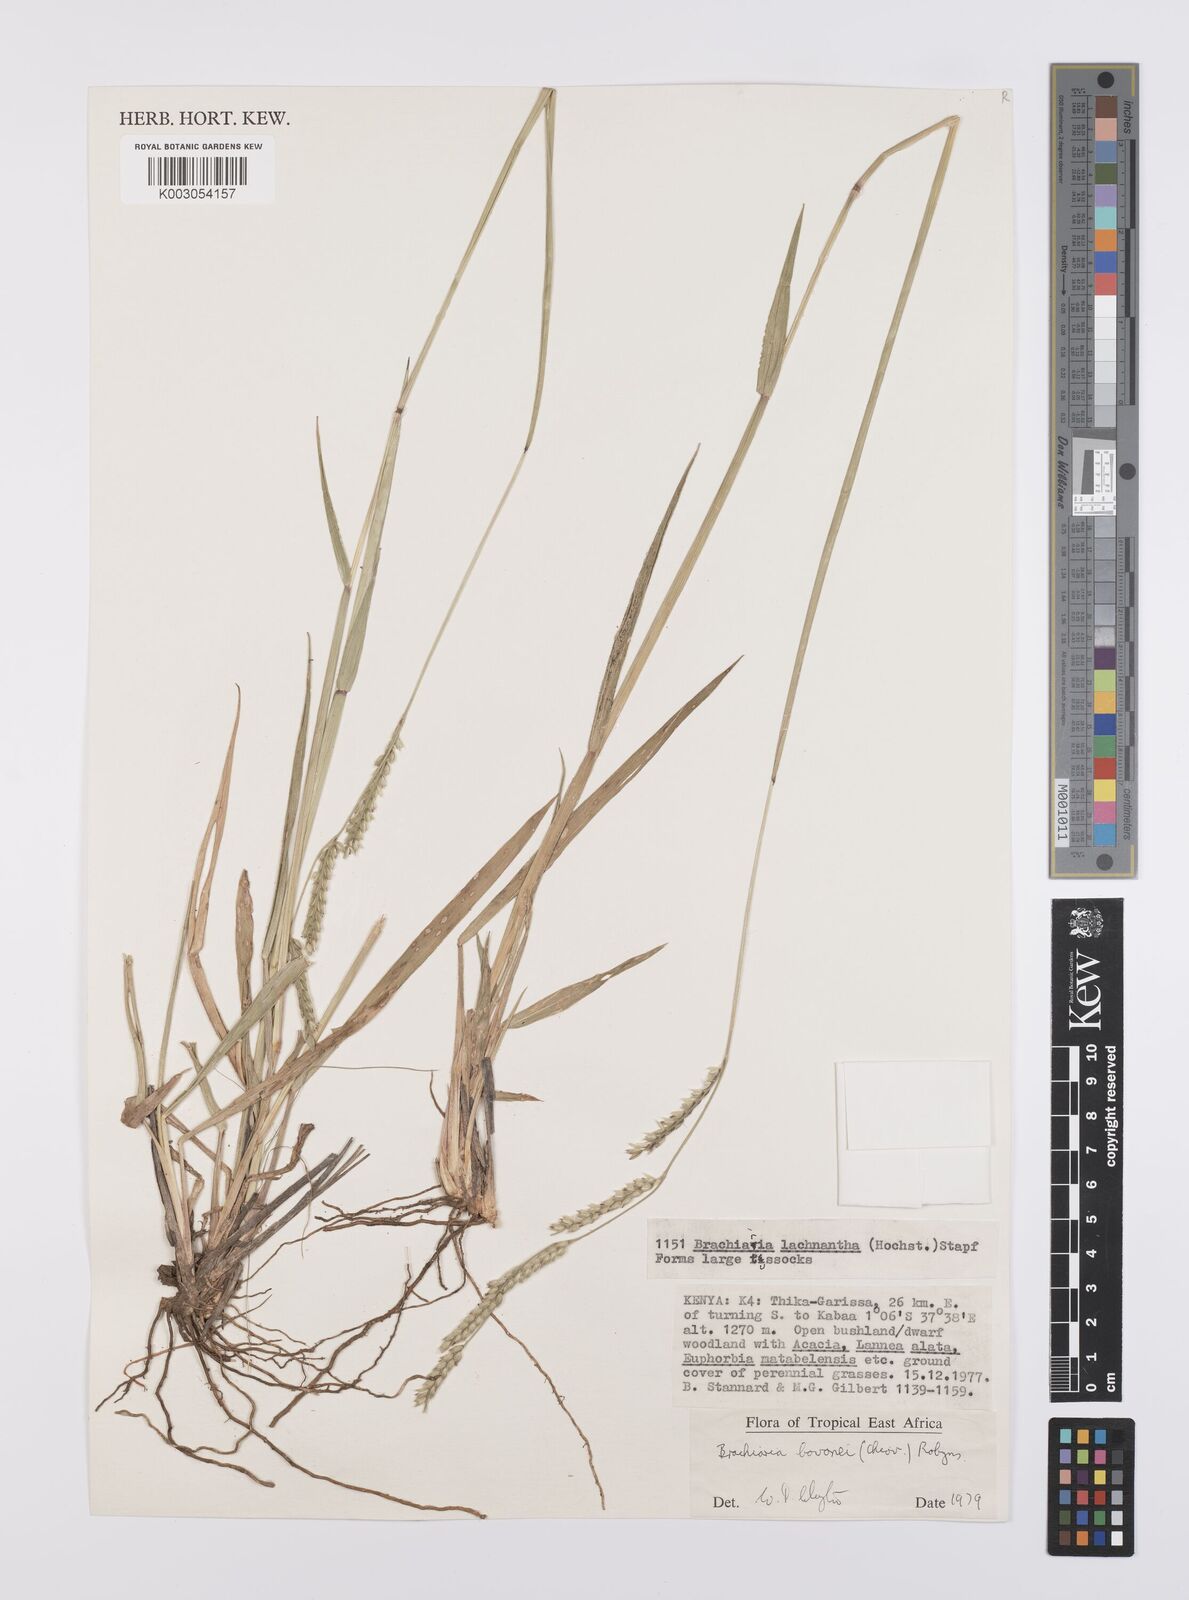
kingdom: Plantae
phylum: Tracheophyta
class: Liliopsida
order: Poales
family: Poaceae
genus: Urochloa
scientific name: Urochloa bovonei
